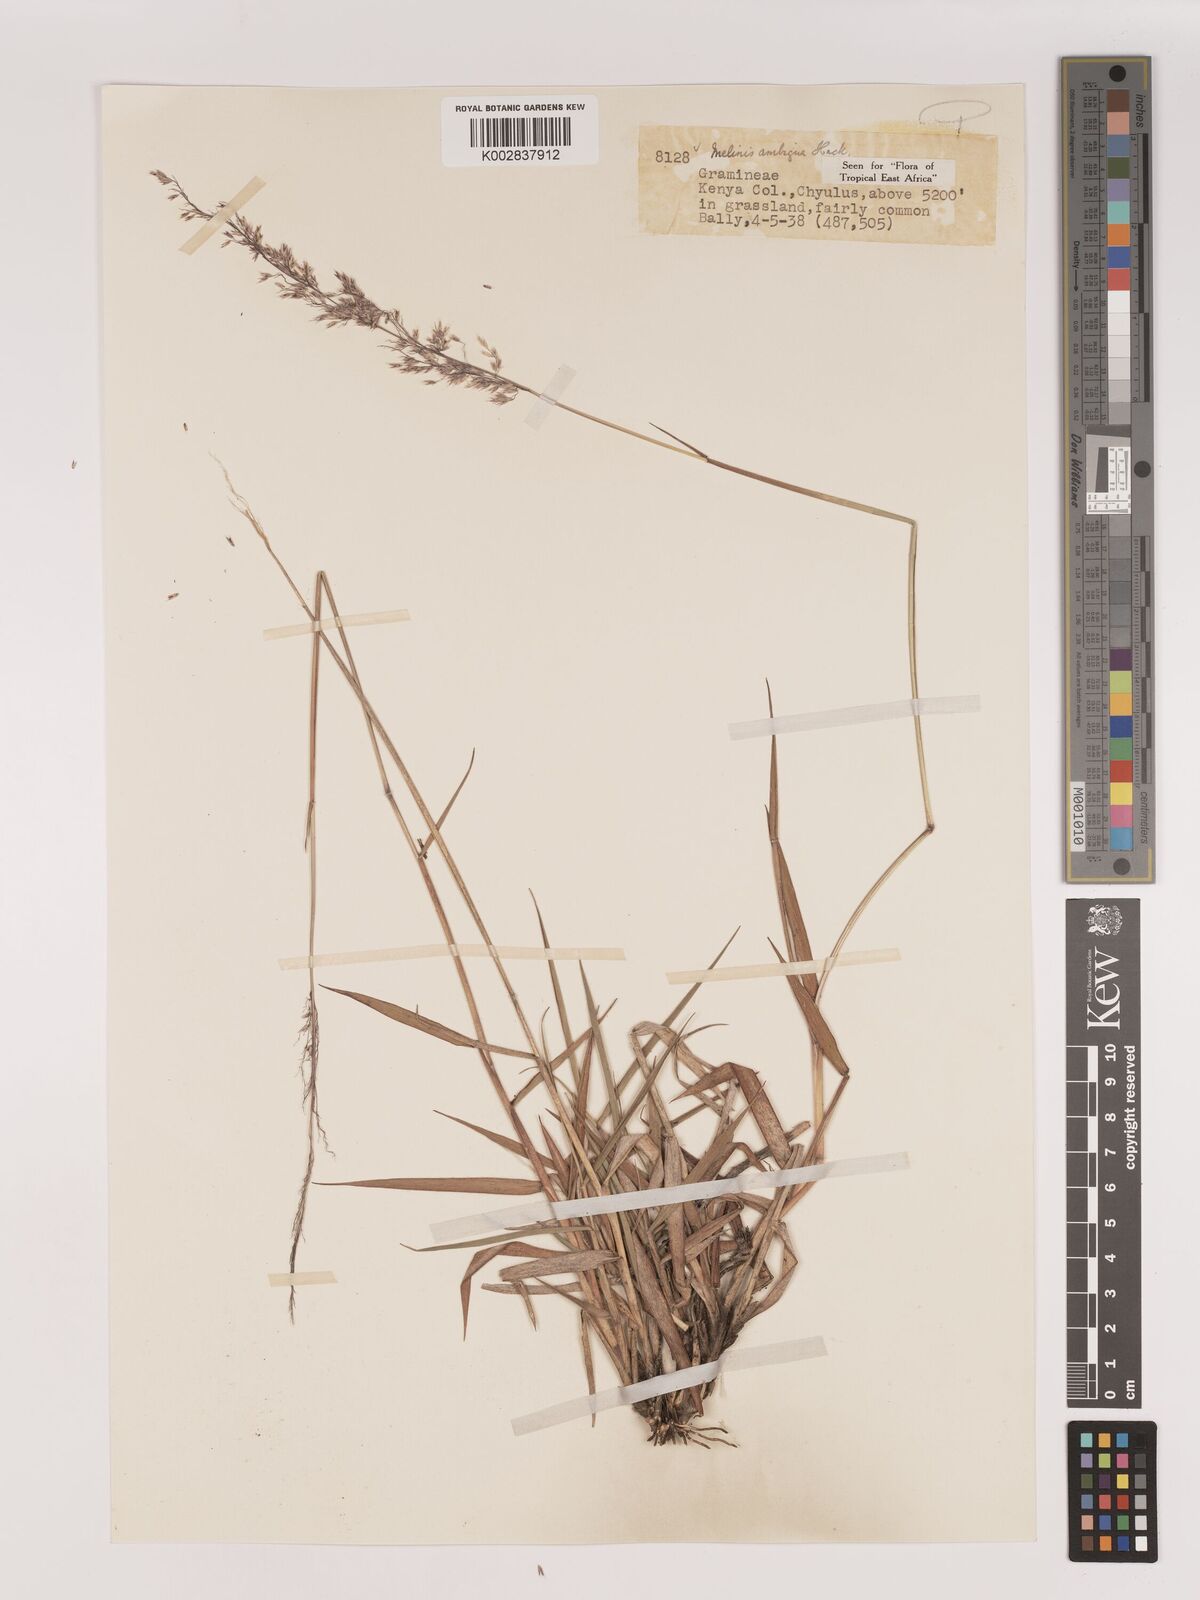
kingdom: Plantae
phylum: Tracheophyta
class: Liliopsida
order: Poales
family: Poaceae
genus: Melinis
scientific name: Melinis ambigua
